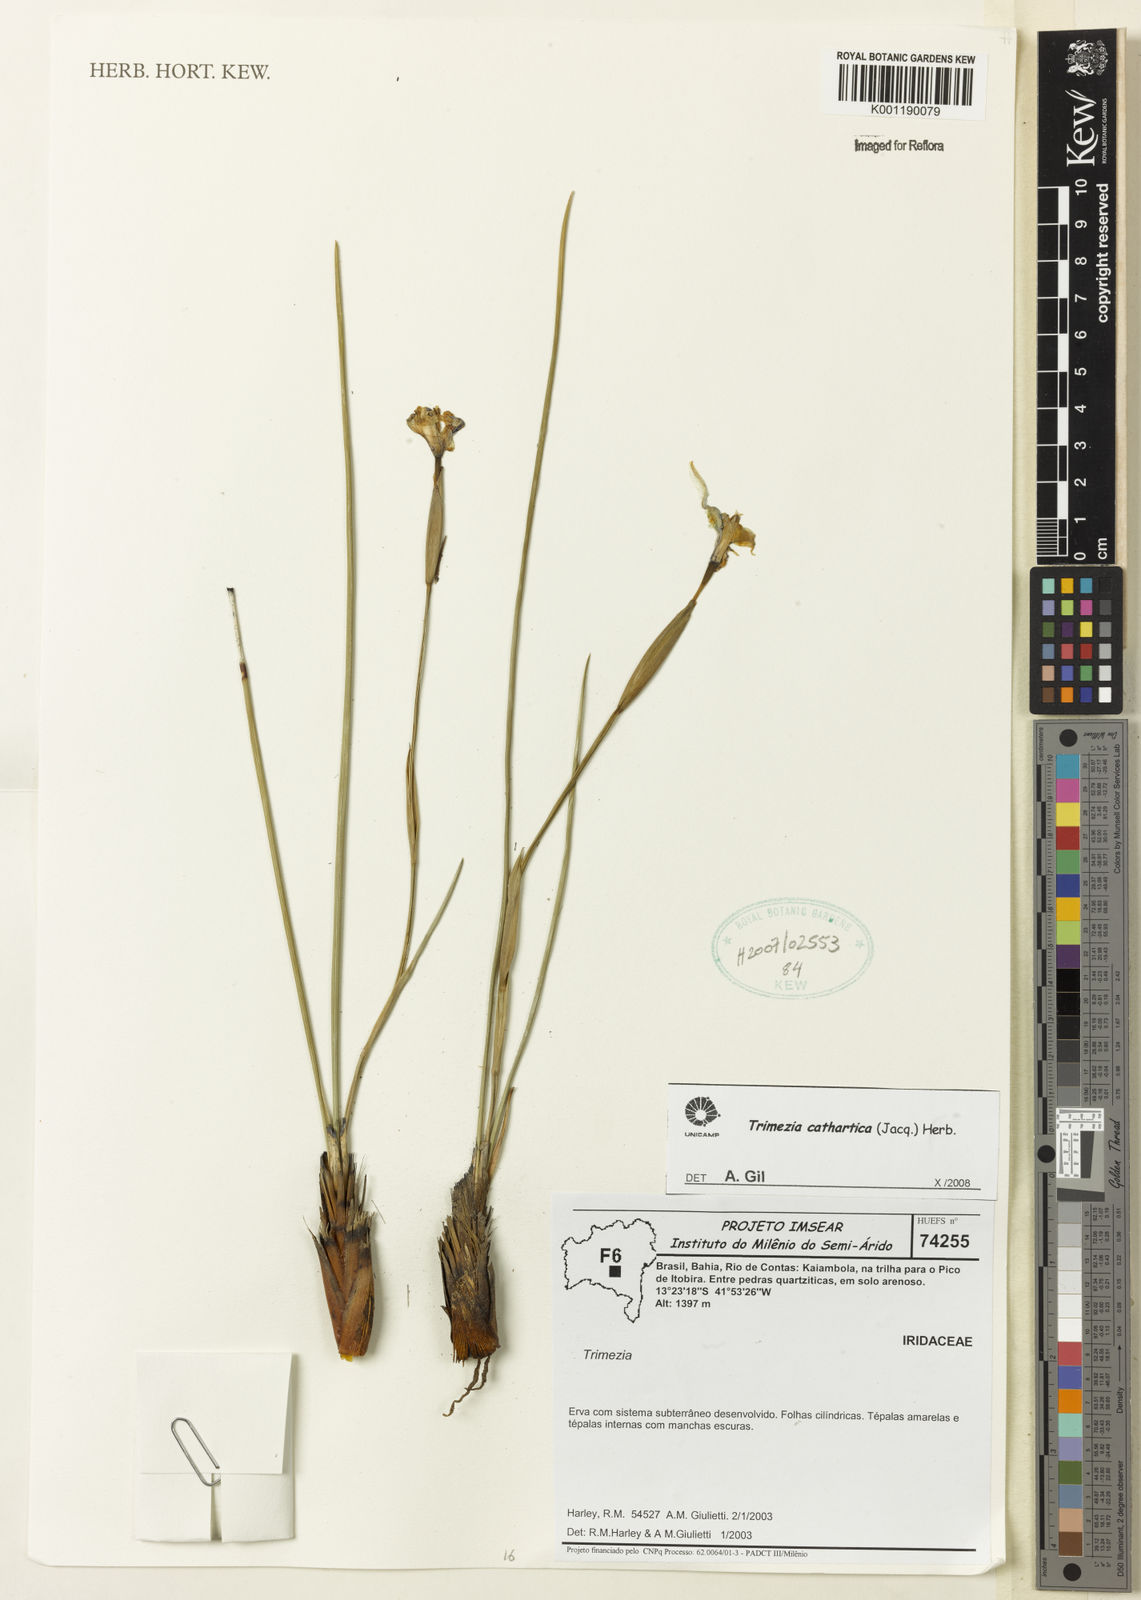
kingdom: Plantae
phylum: Tracheophyta
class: Liliopsida
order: Asparagales
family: Iridaceae
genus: Trimezia
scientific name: Trimezia cathartica
